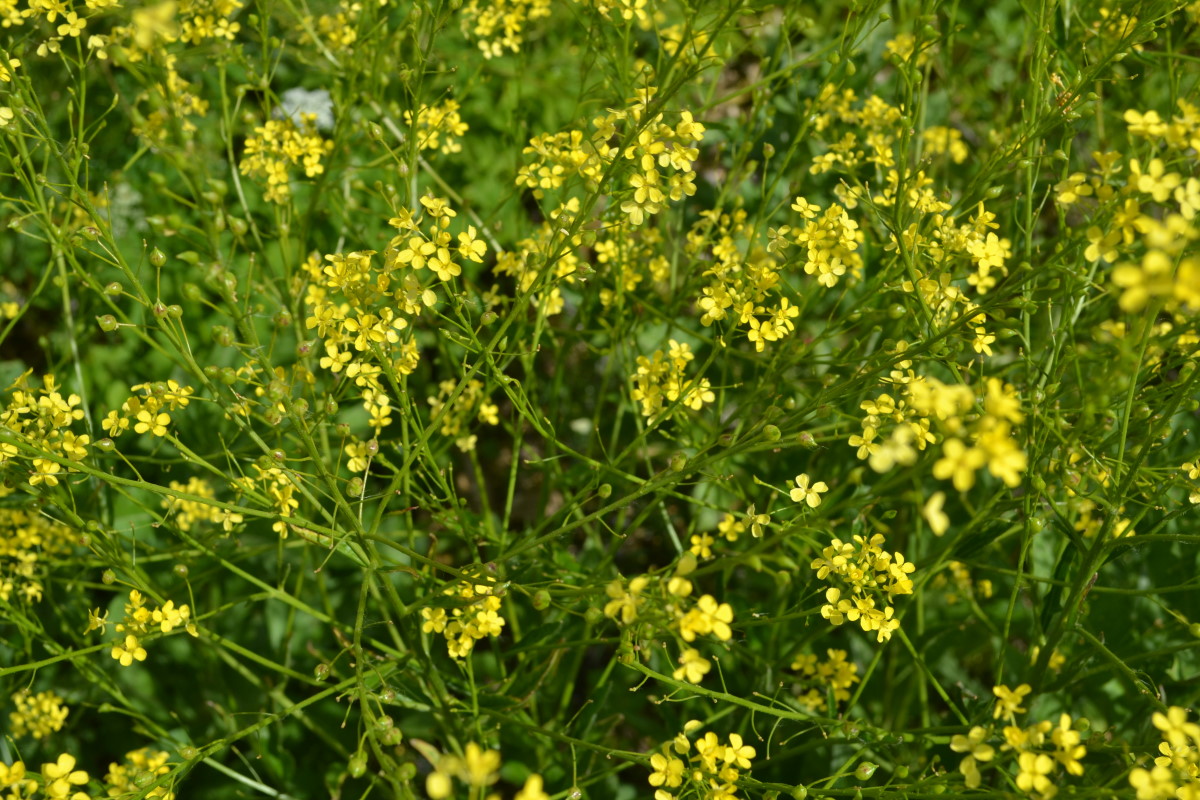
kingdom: Plantae
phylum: Tracheophyta
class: Magnoliopsida
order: Brassicales
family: Brassicaceae
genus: Barbarea
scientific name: Barbarea vulgaris
